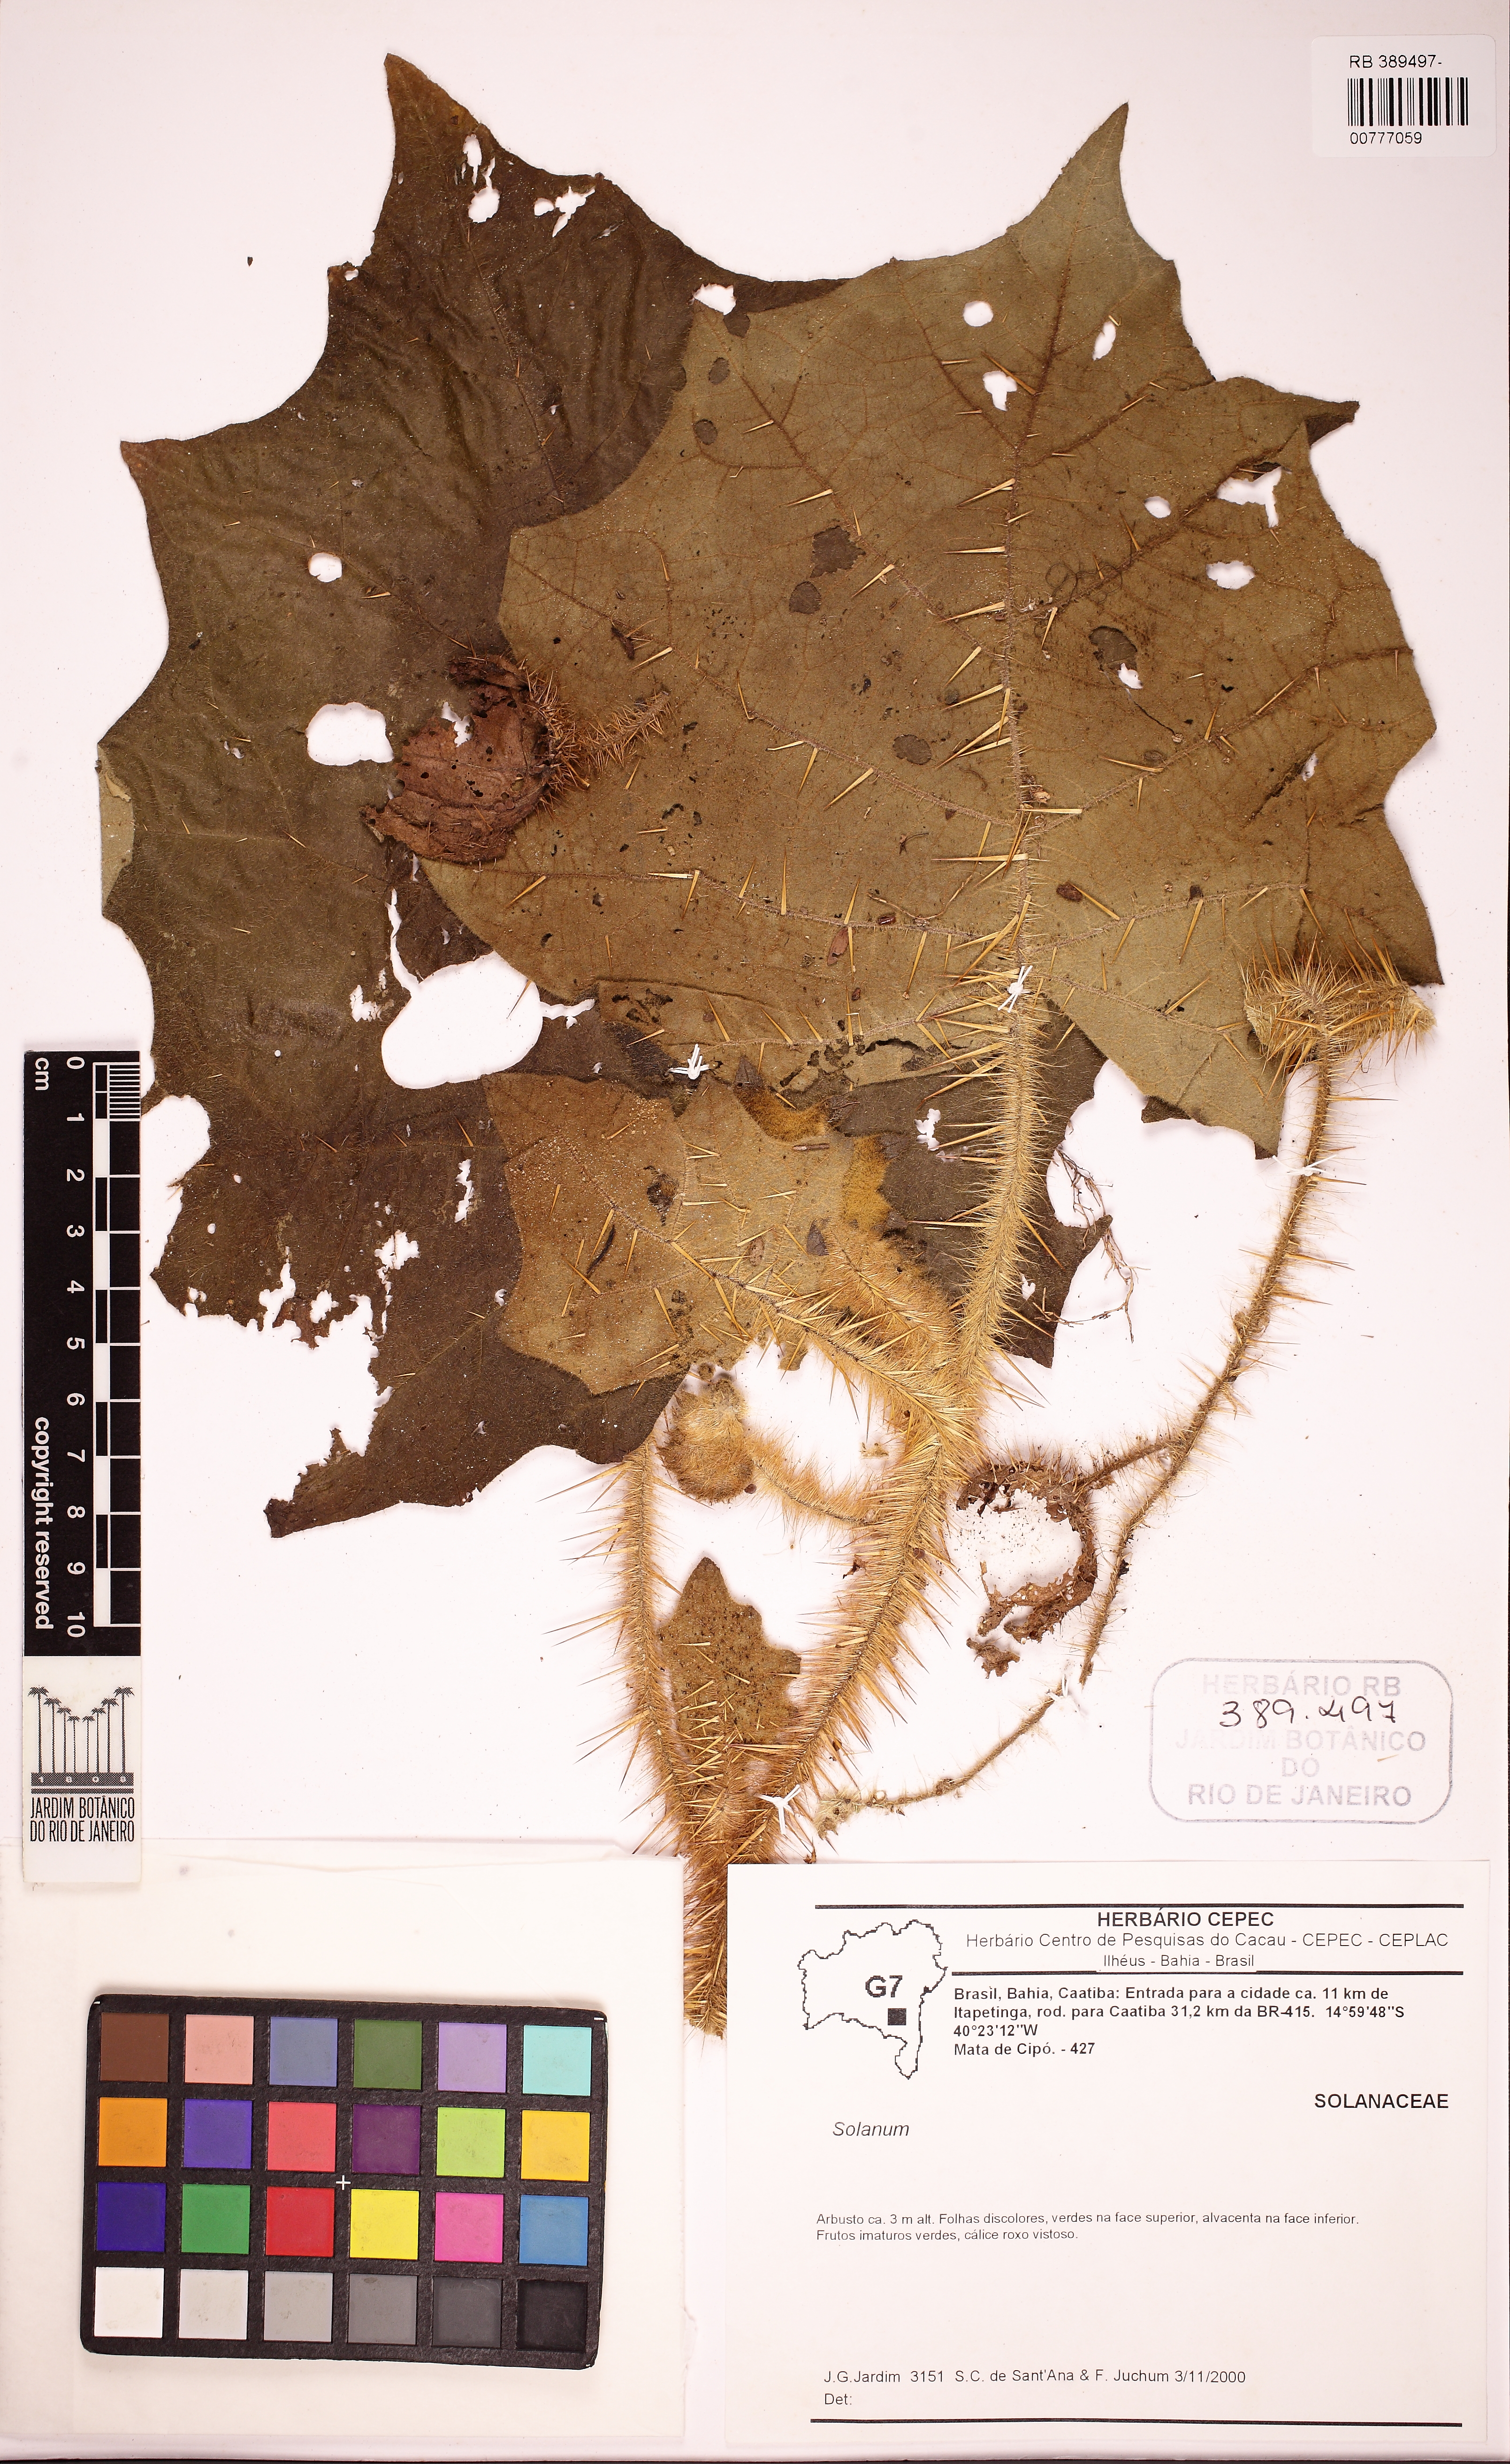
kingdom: Plantae
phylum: Tracheophyta
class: Magnoliopsida
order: Solanales
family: Solanaceae
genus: Solanum
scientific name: Solanum kollastrum
